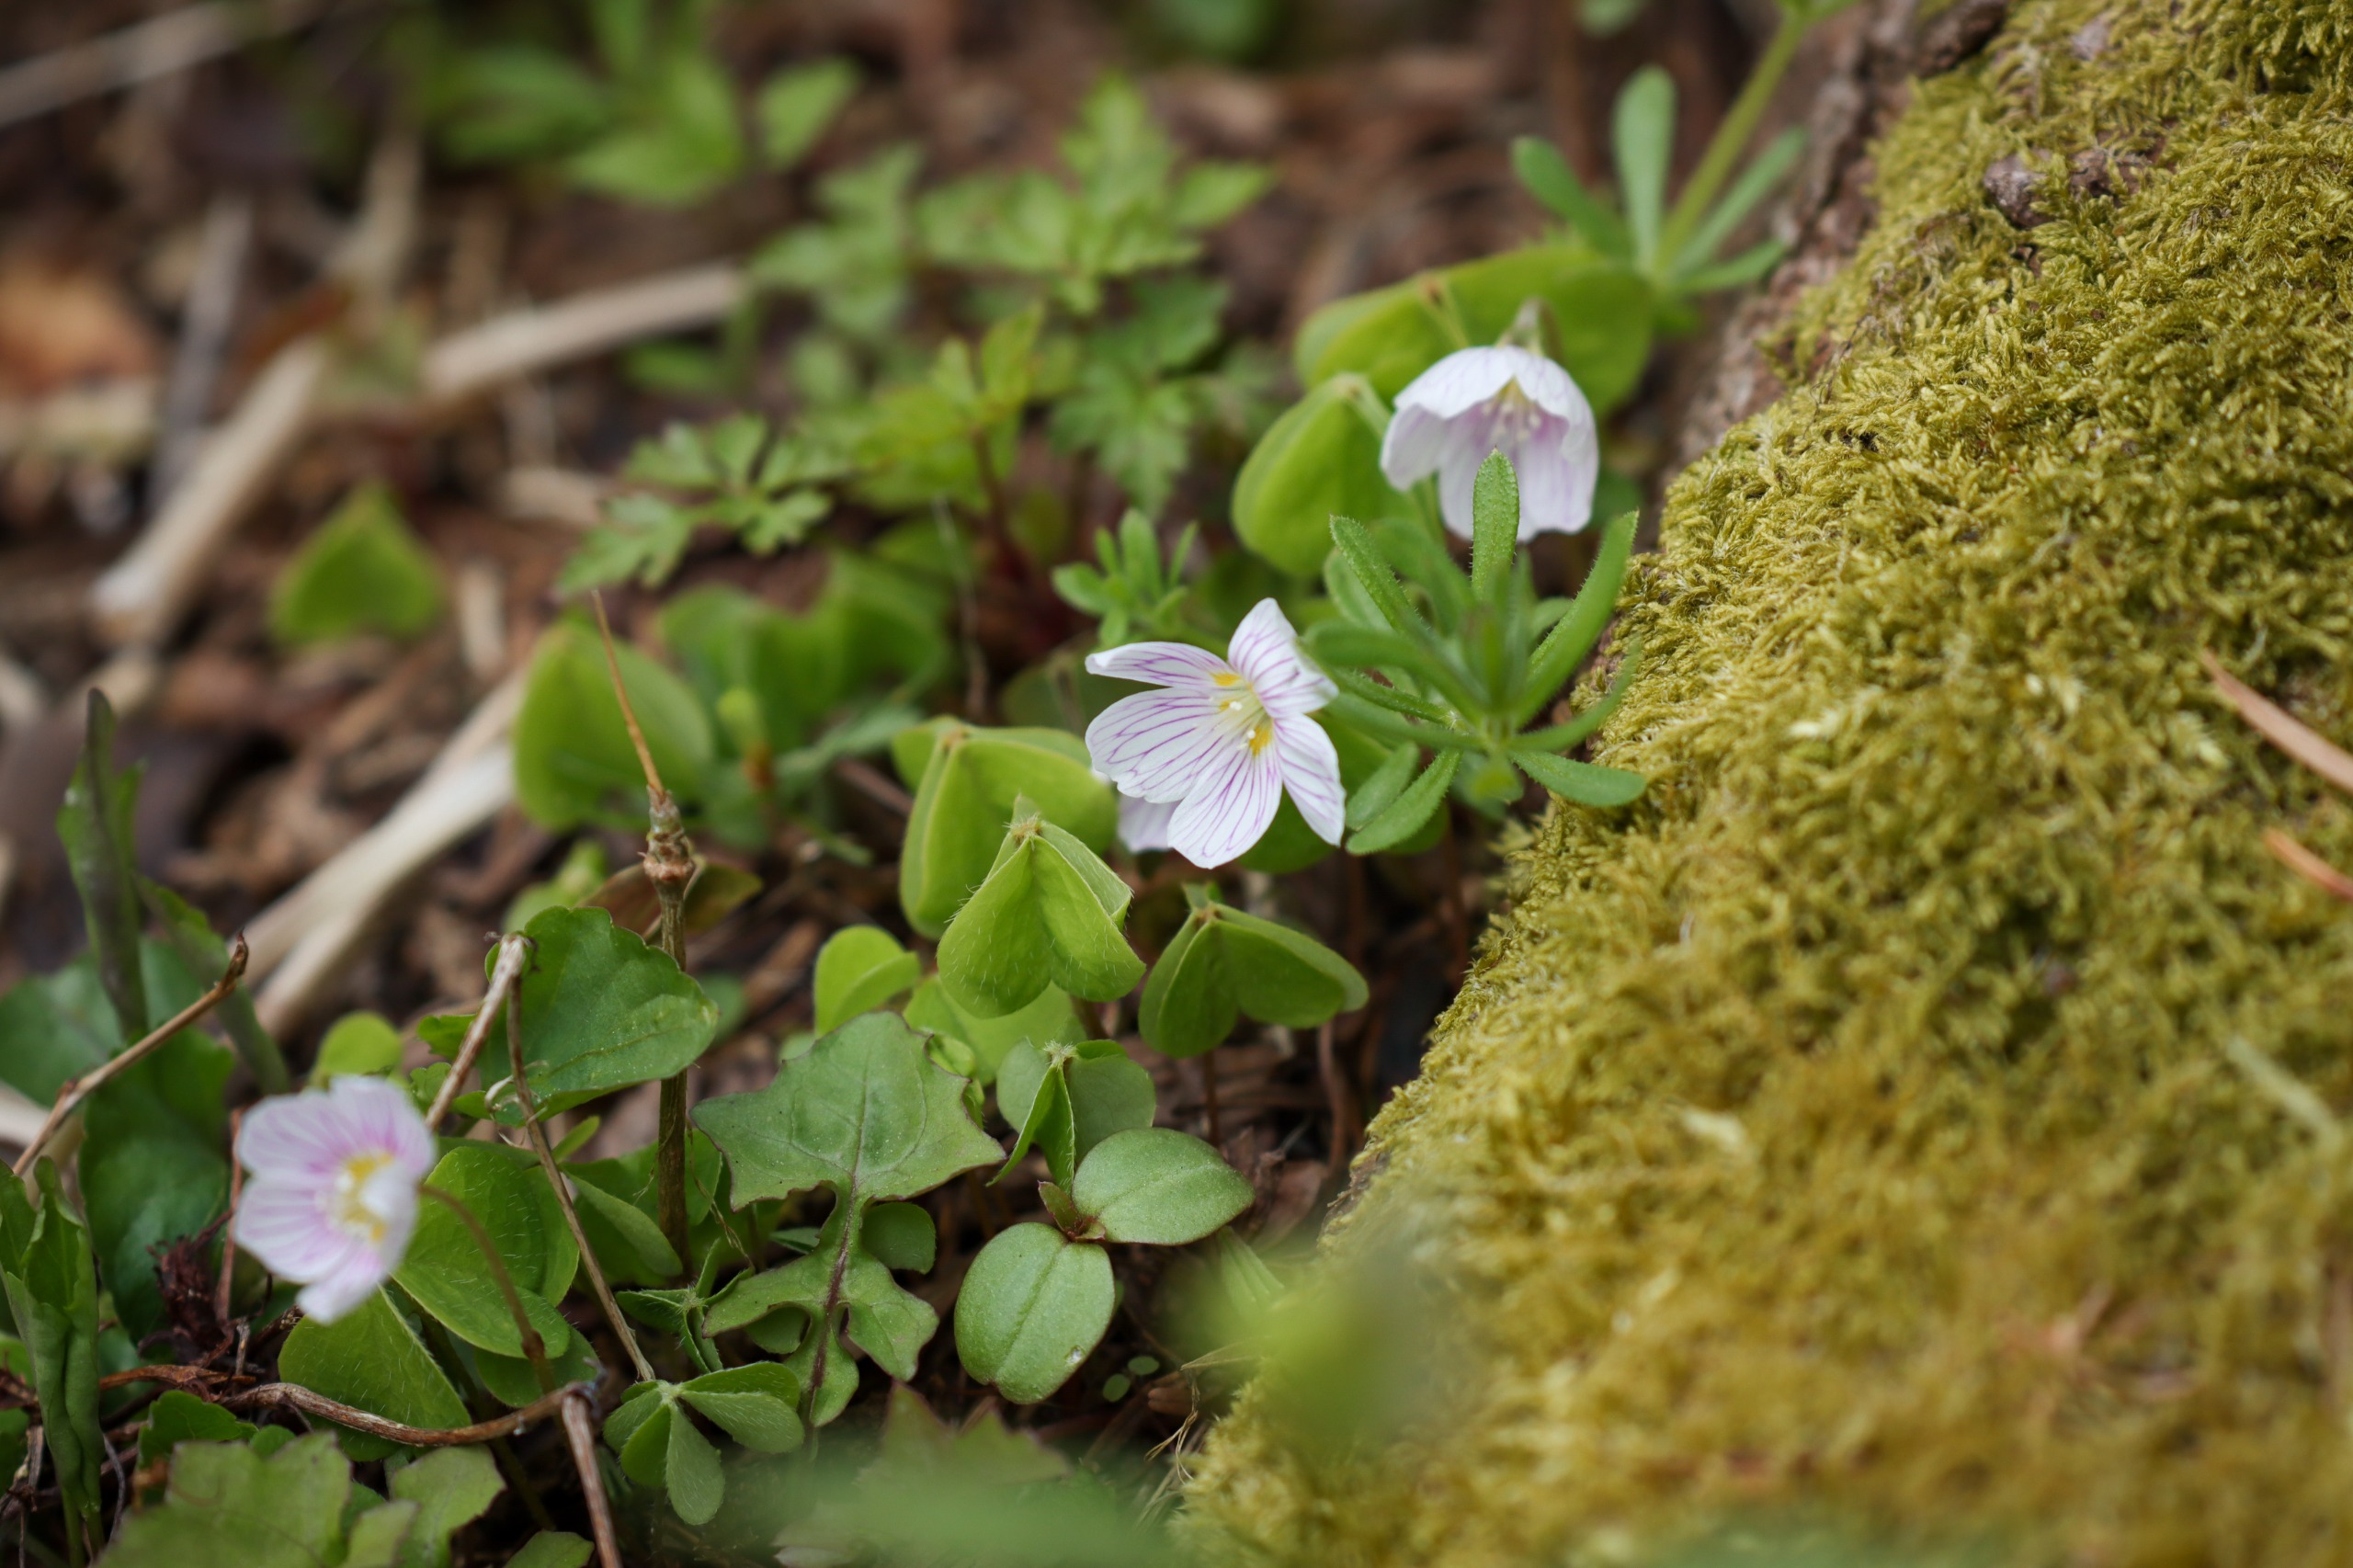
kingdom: Plantae
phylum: Tracheophyta
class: Magnoliopsida
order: Oxalidales
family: Oxalidaceae
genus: Oxalis
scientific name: Oxalis acetosella
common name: Skovsyre
